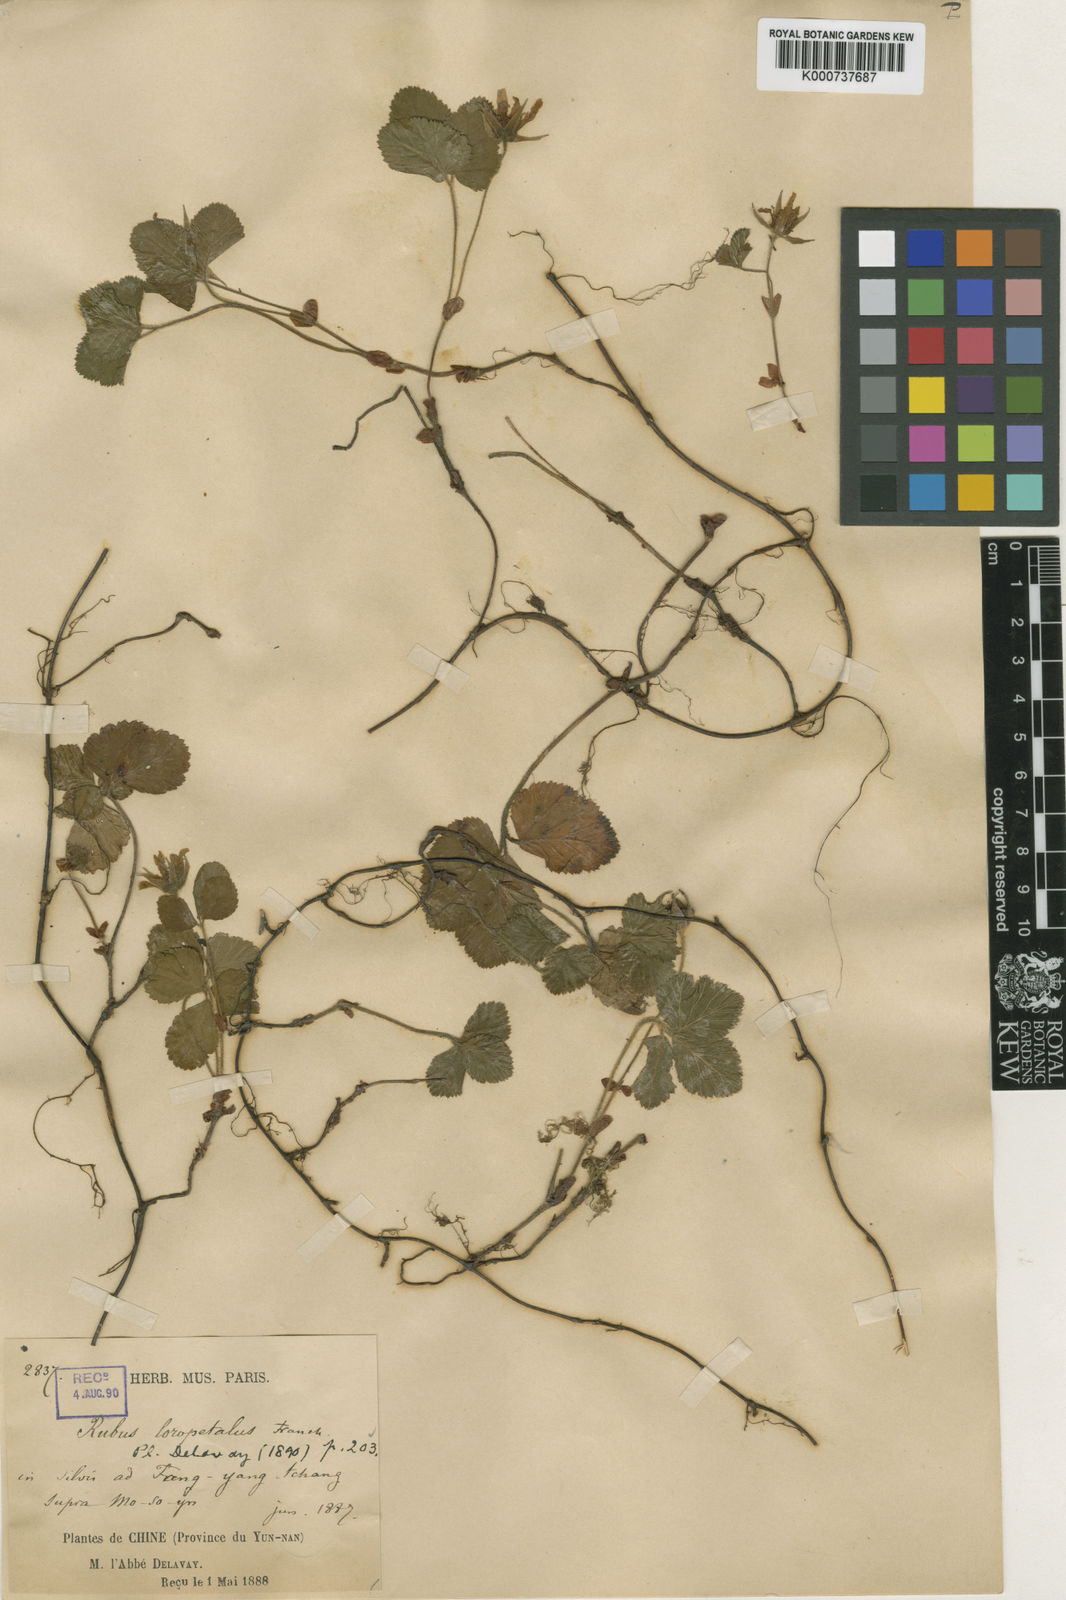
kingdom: Plantae
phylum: Tracheophyta
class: Magnoliopsida
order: Rosales
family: Rosaceae
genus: Rubus
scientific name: Rubus fockeanus
